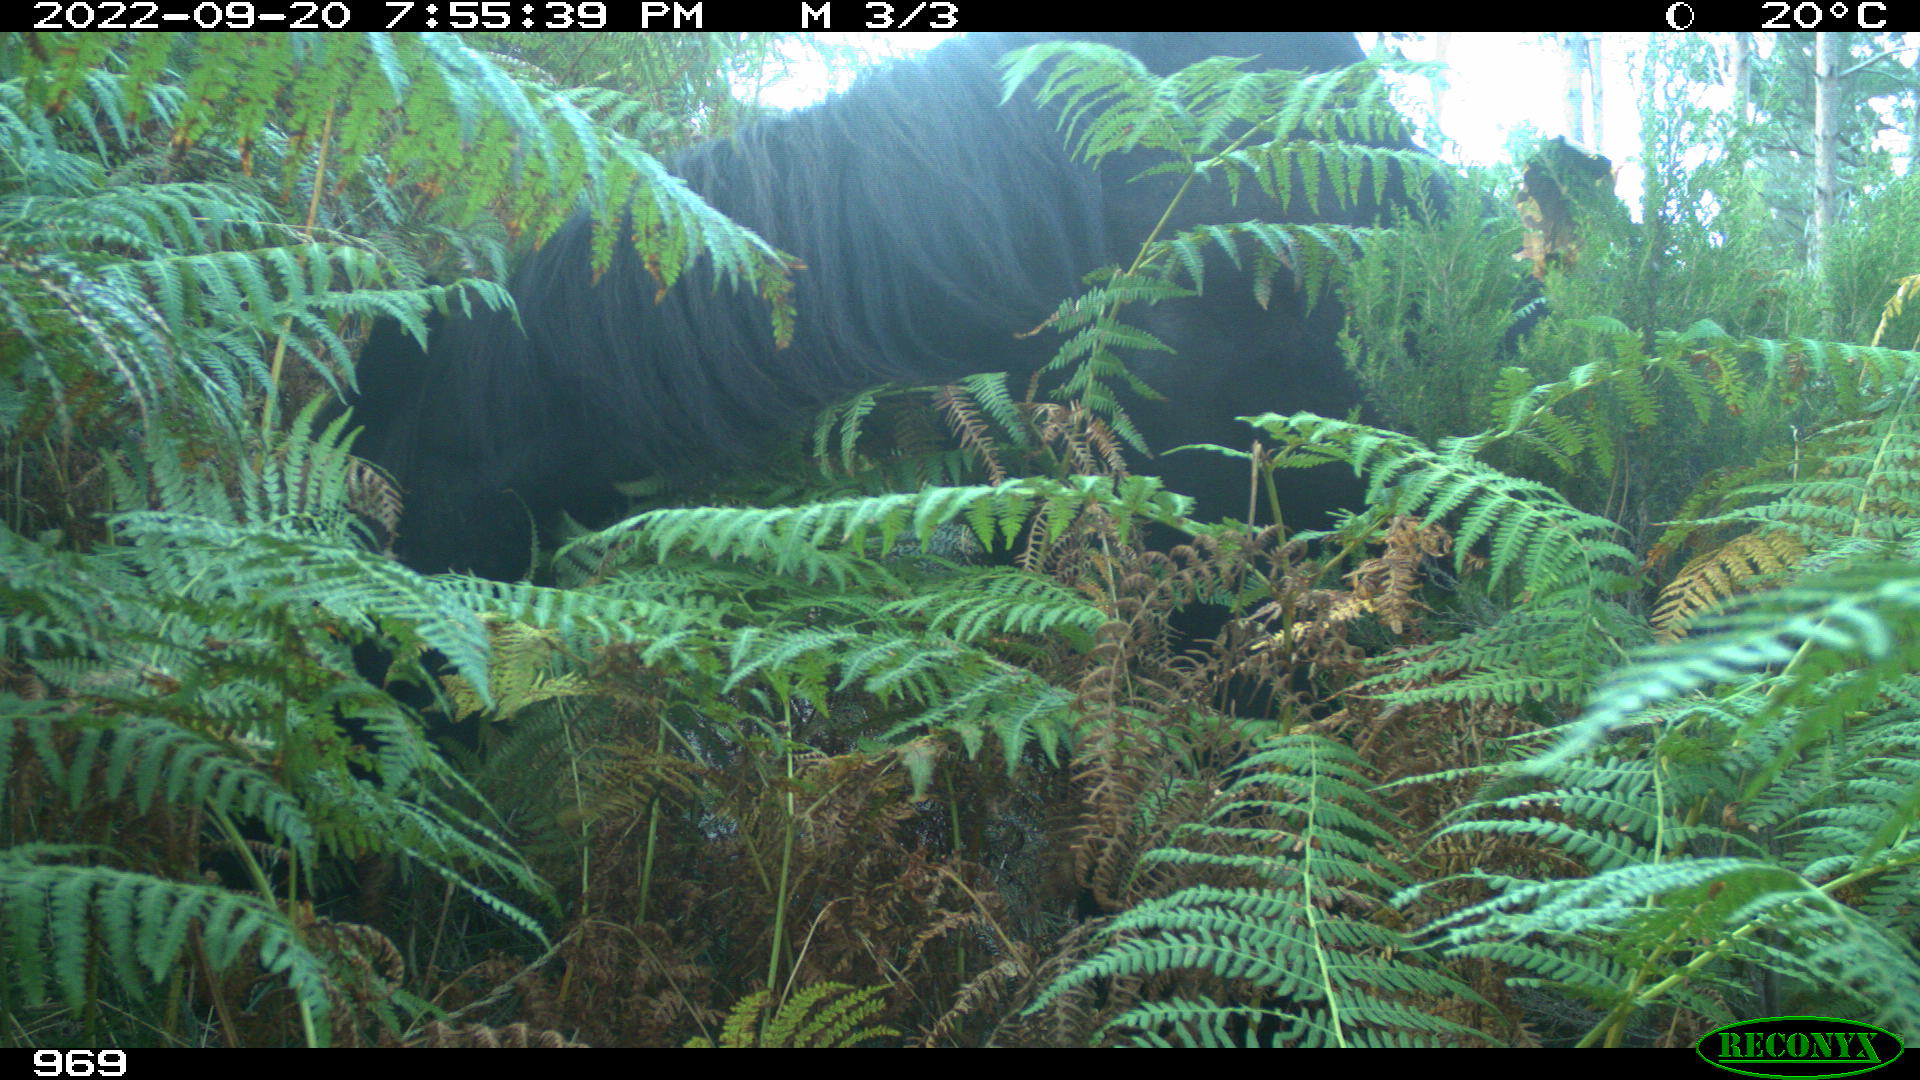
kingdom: Animalia
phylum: Chordata
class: Mammalia
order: Perissodactyla
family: Equidae
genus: Equus
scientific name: Equus caballus
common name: Horse
